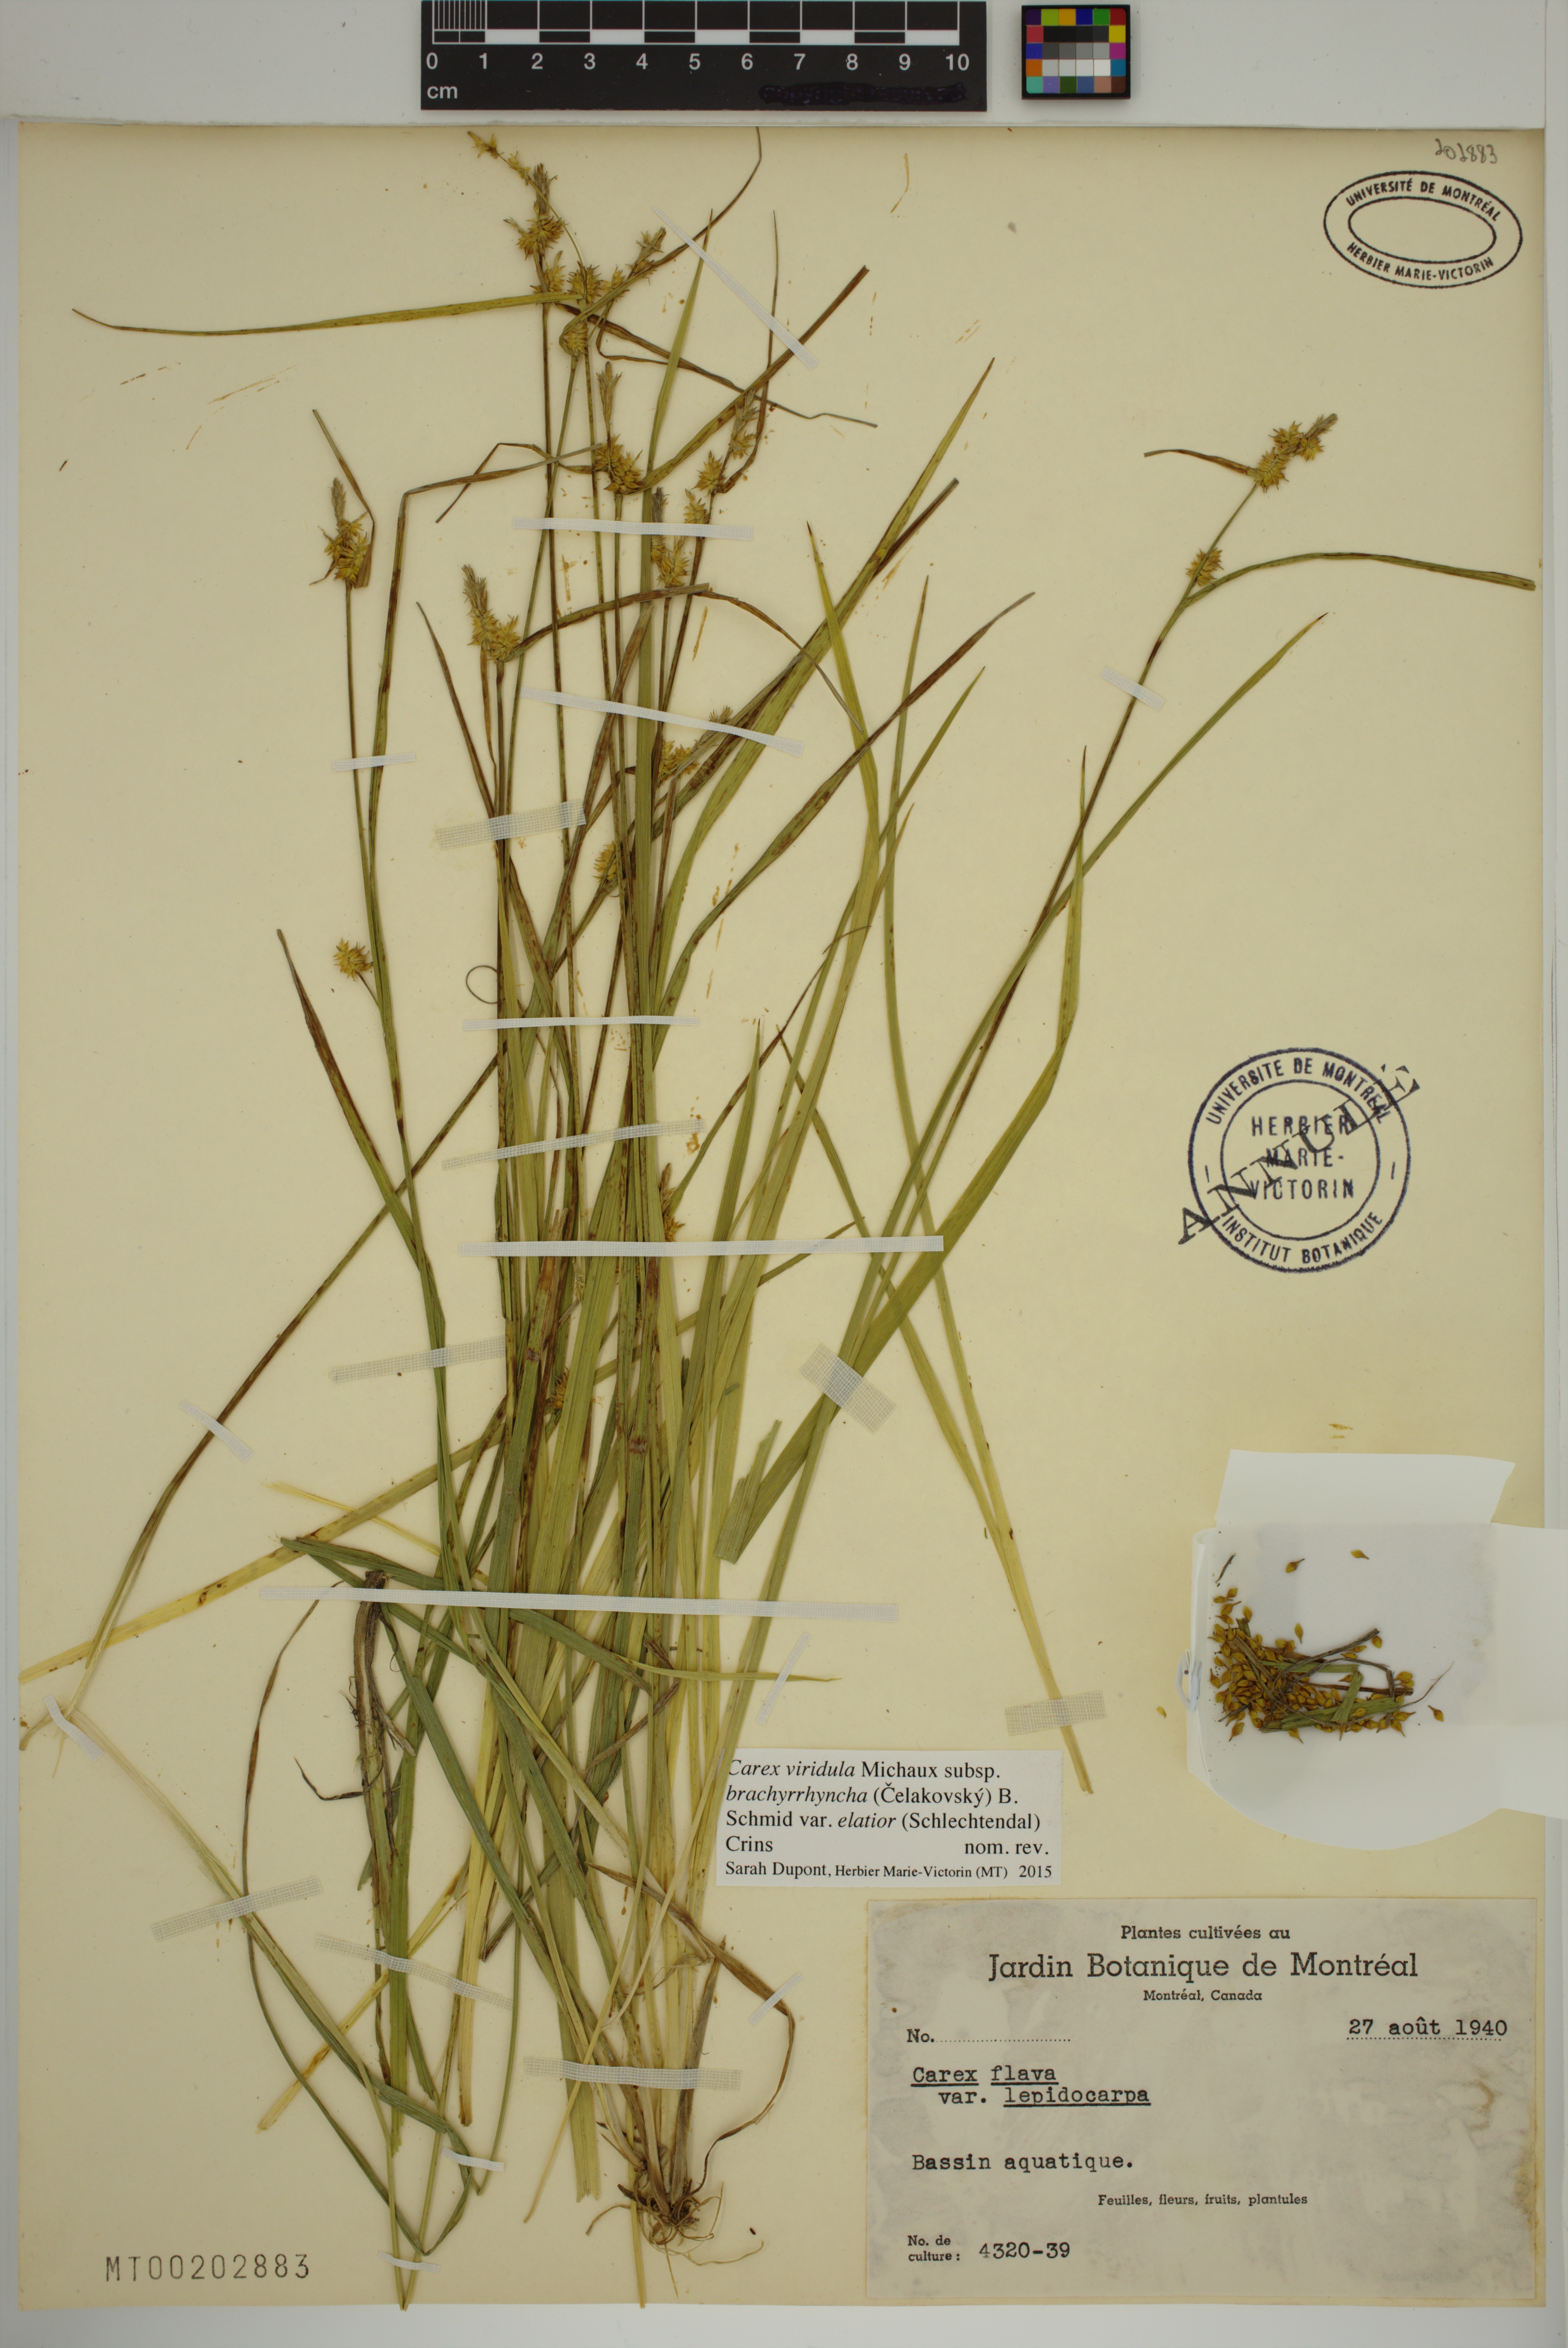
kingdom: Plantae
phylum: Tracheophyta
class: Liliopsida
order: Poales
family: Cyperaceae
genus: Carex
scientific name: Carex lepidocarpa
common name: Long-stalked yellow-sedge
